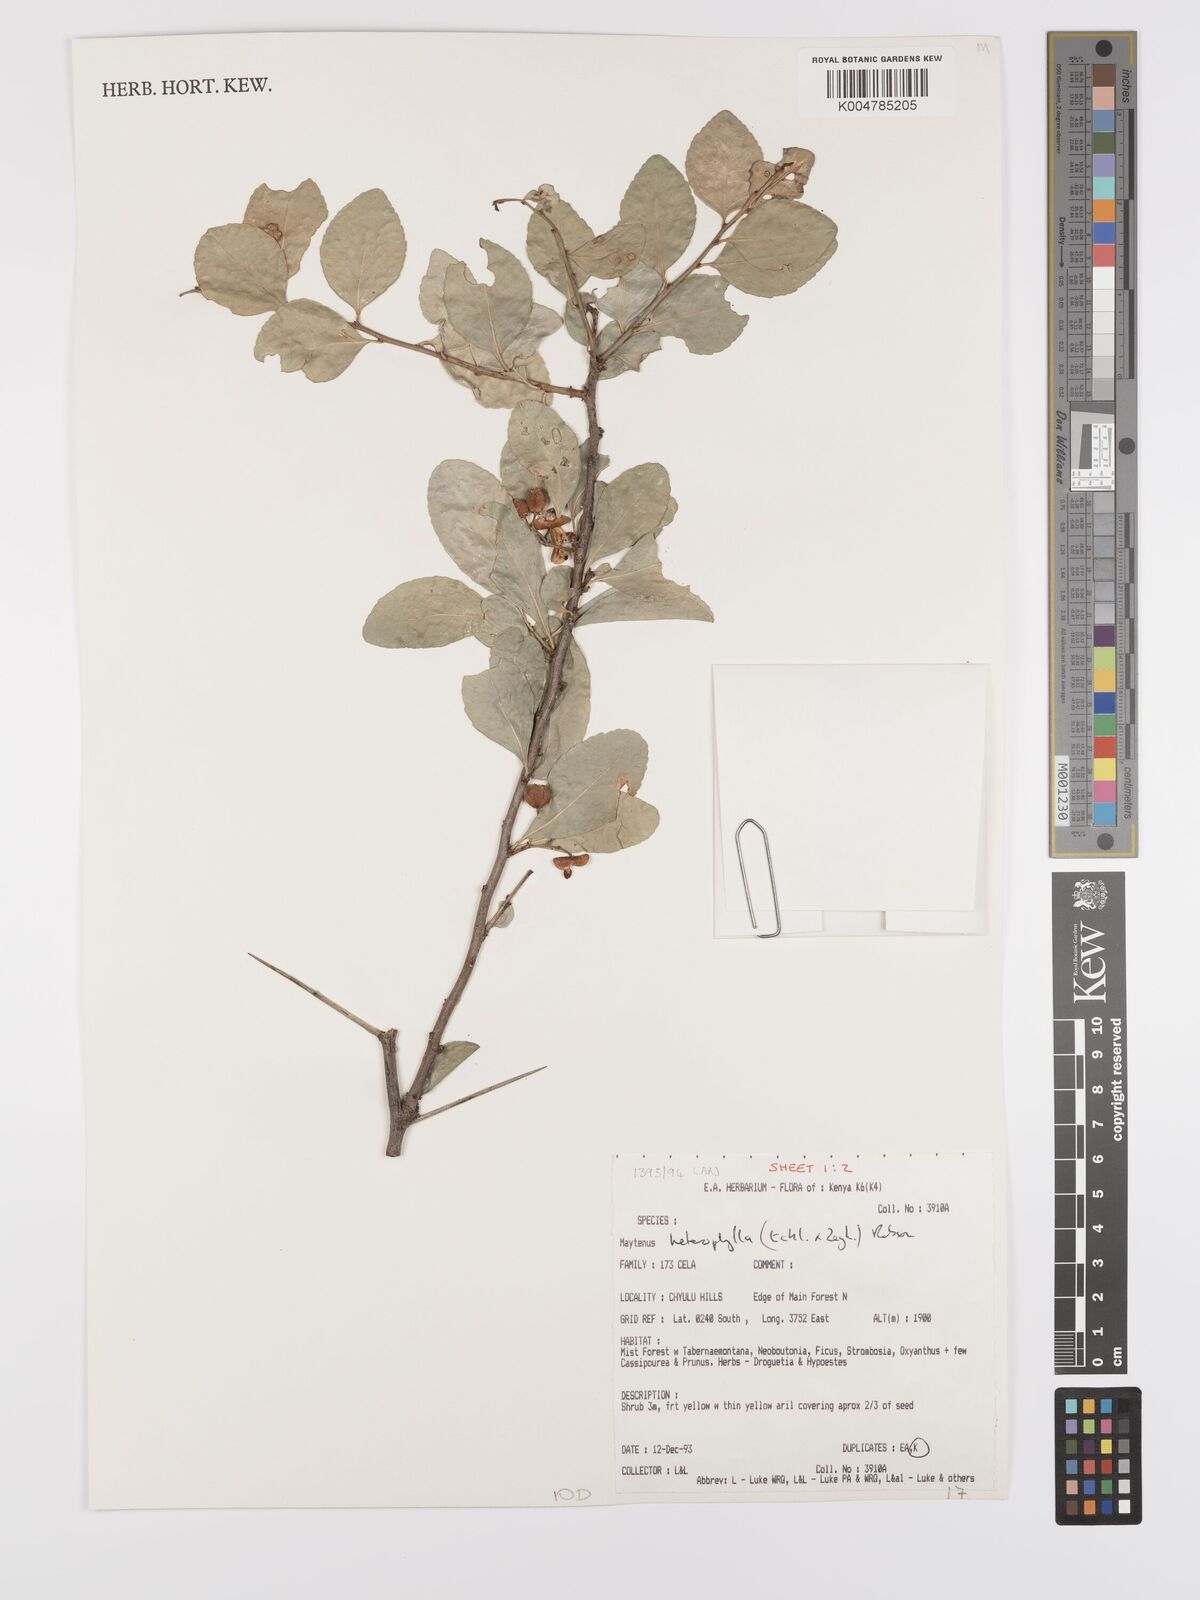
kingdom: Plantae
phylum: Tracheophyta
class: Magnoliopsida
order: Celastrales
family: Celastraceae
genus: Gymnosporia
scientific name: Gymnosporia heterophylla
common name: Angle-stem spikethorn
